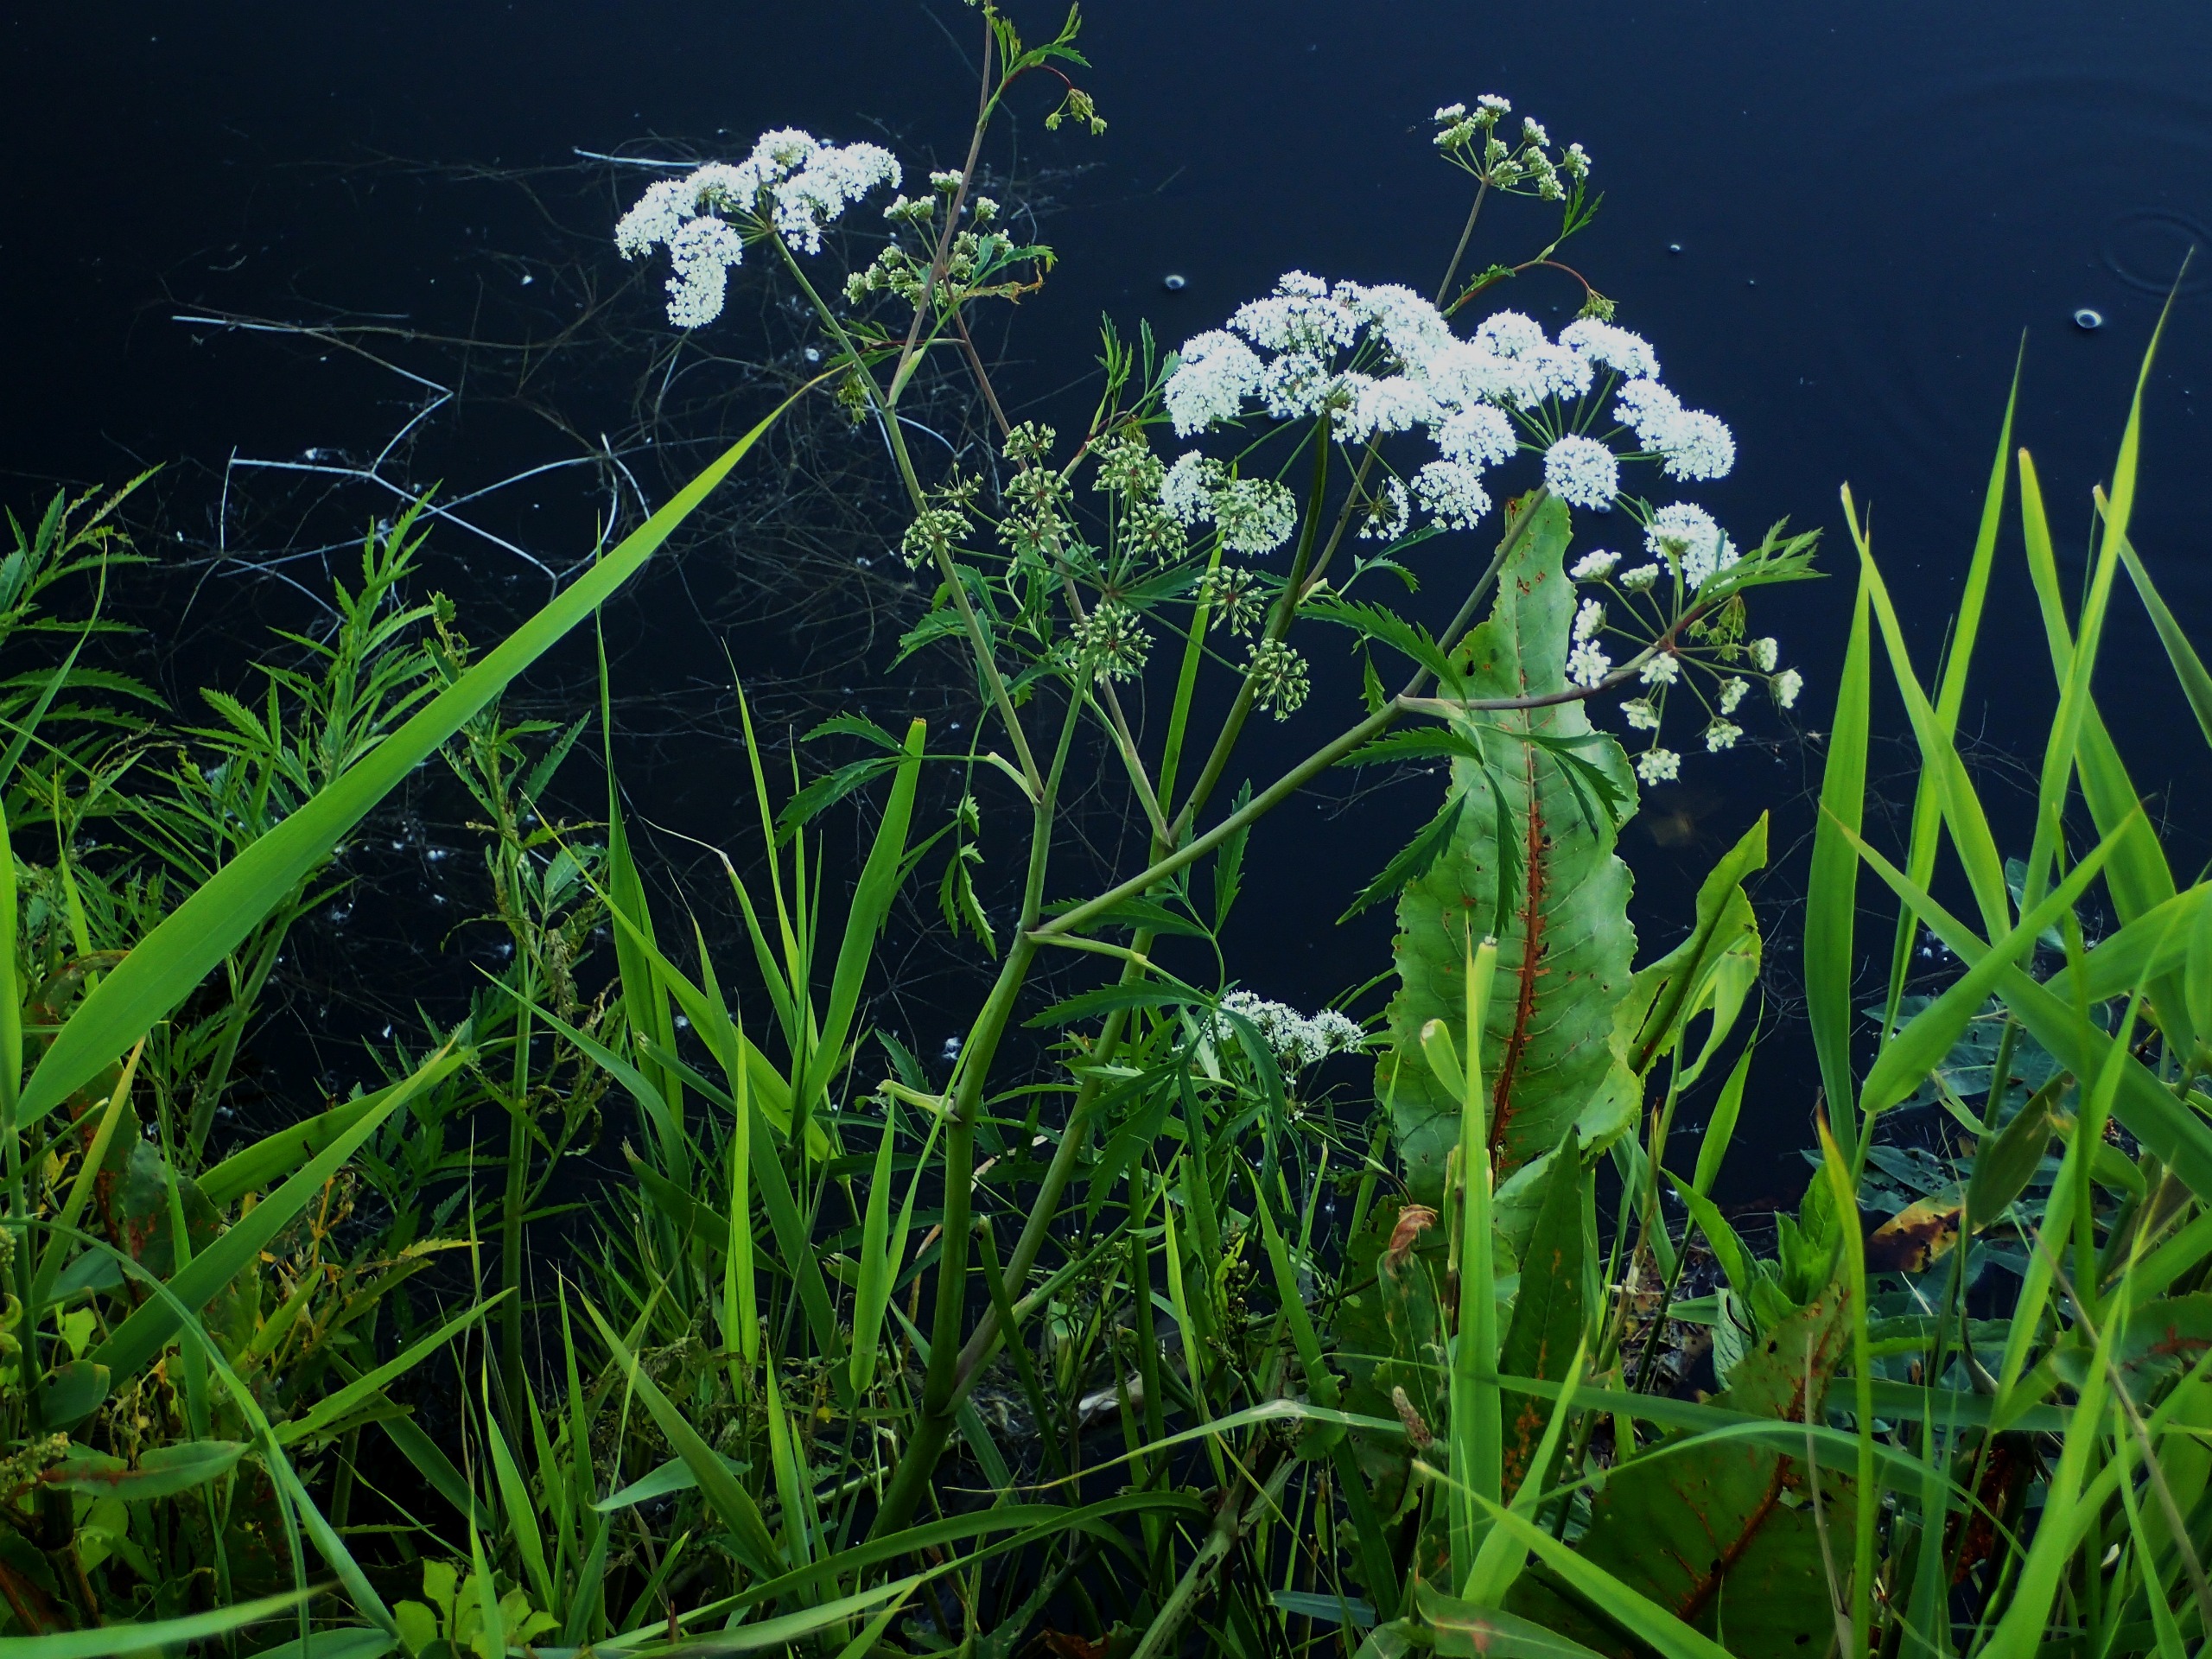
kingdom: Plantae
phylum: Tracheophyta
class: Magnoliopsida
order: Apiales
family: Apiaceae
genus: Cicuta
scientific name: Cicuta virosa
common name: Gifttyde
